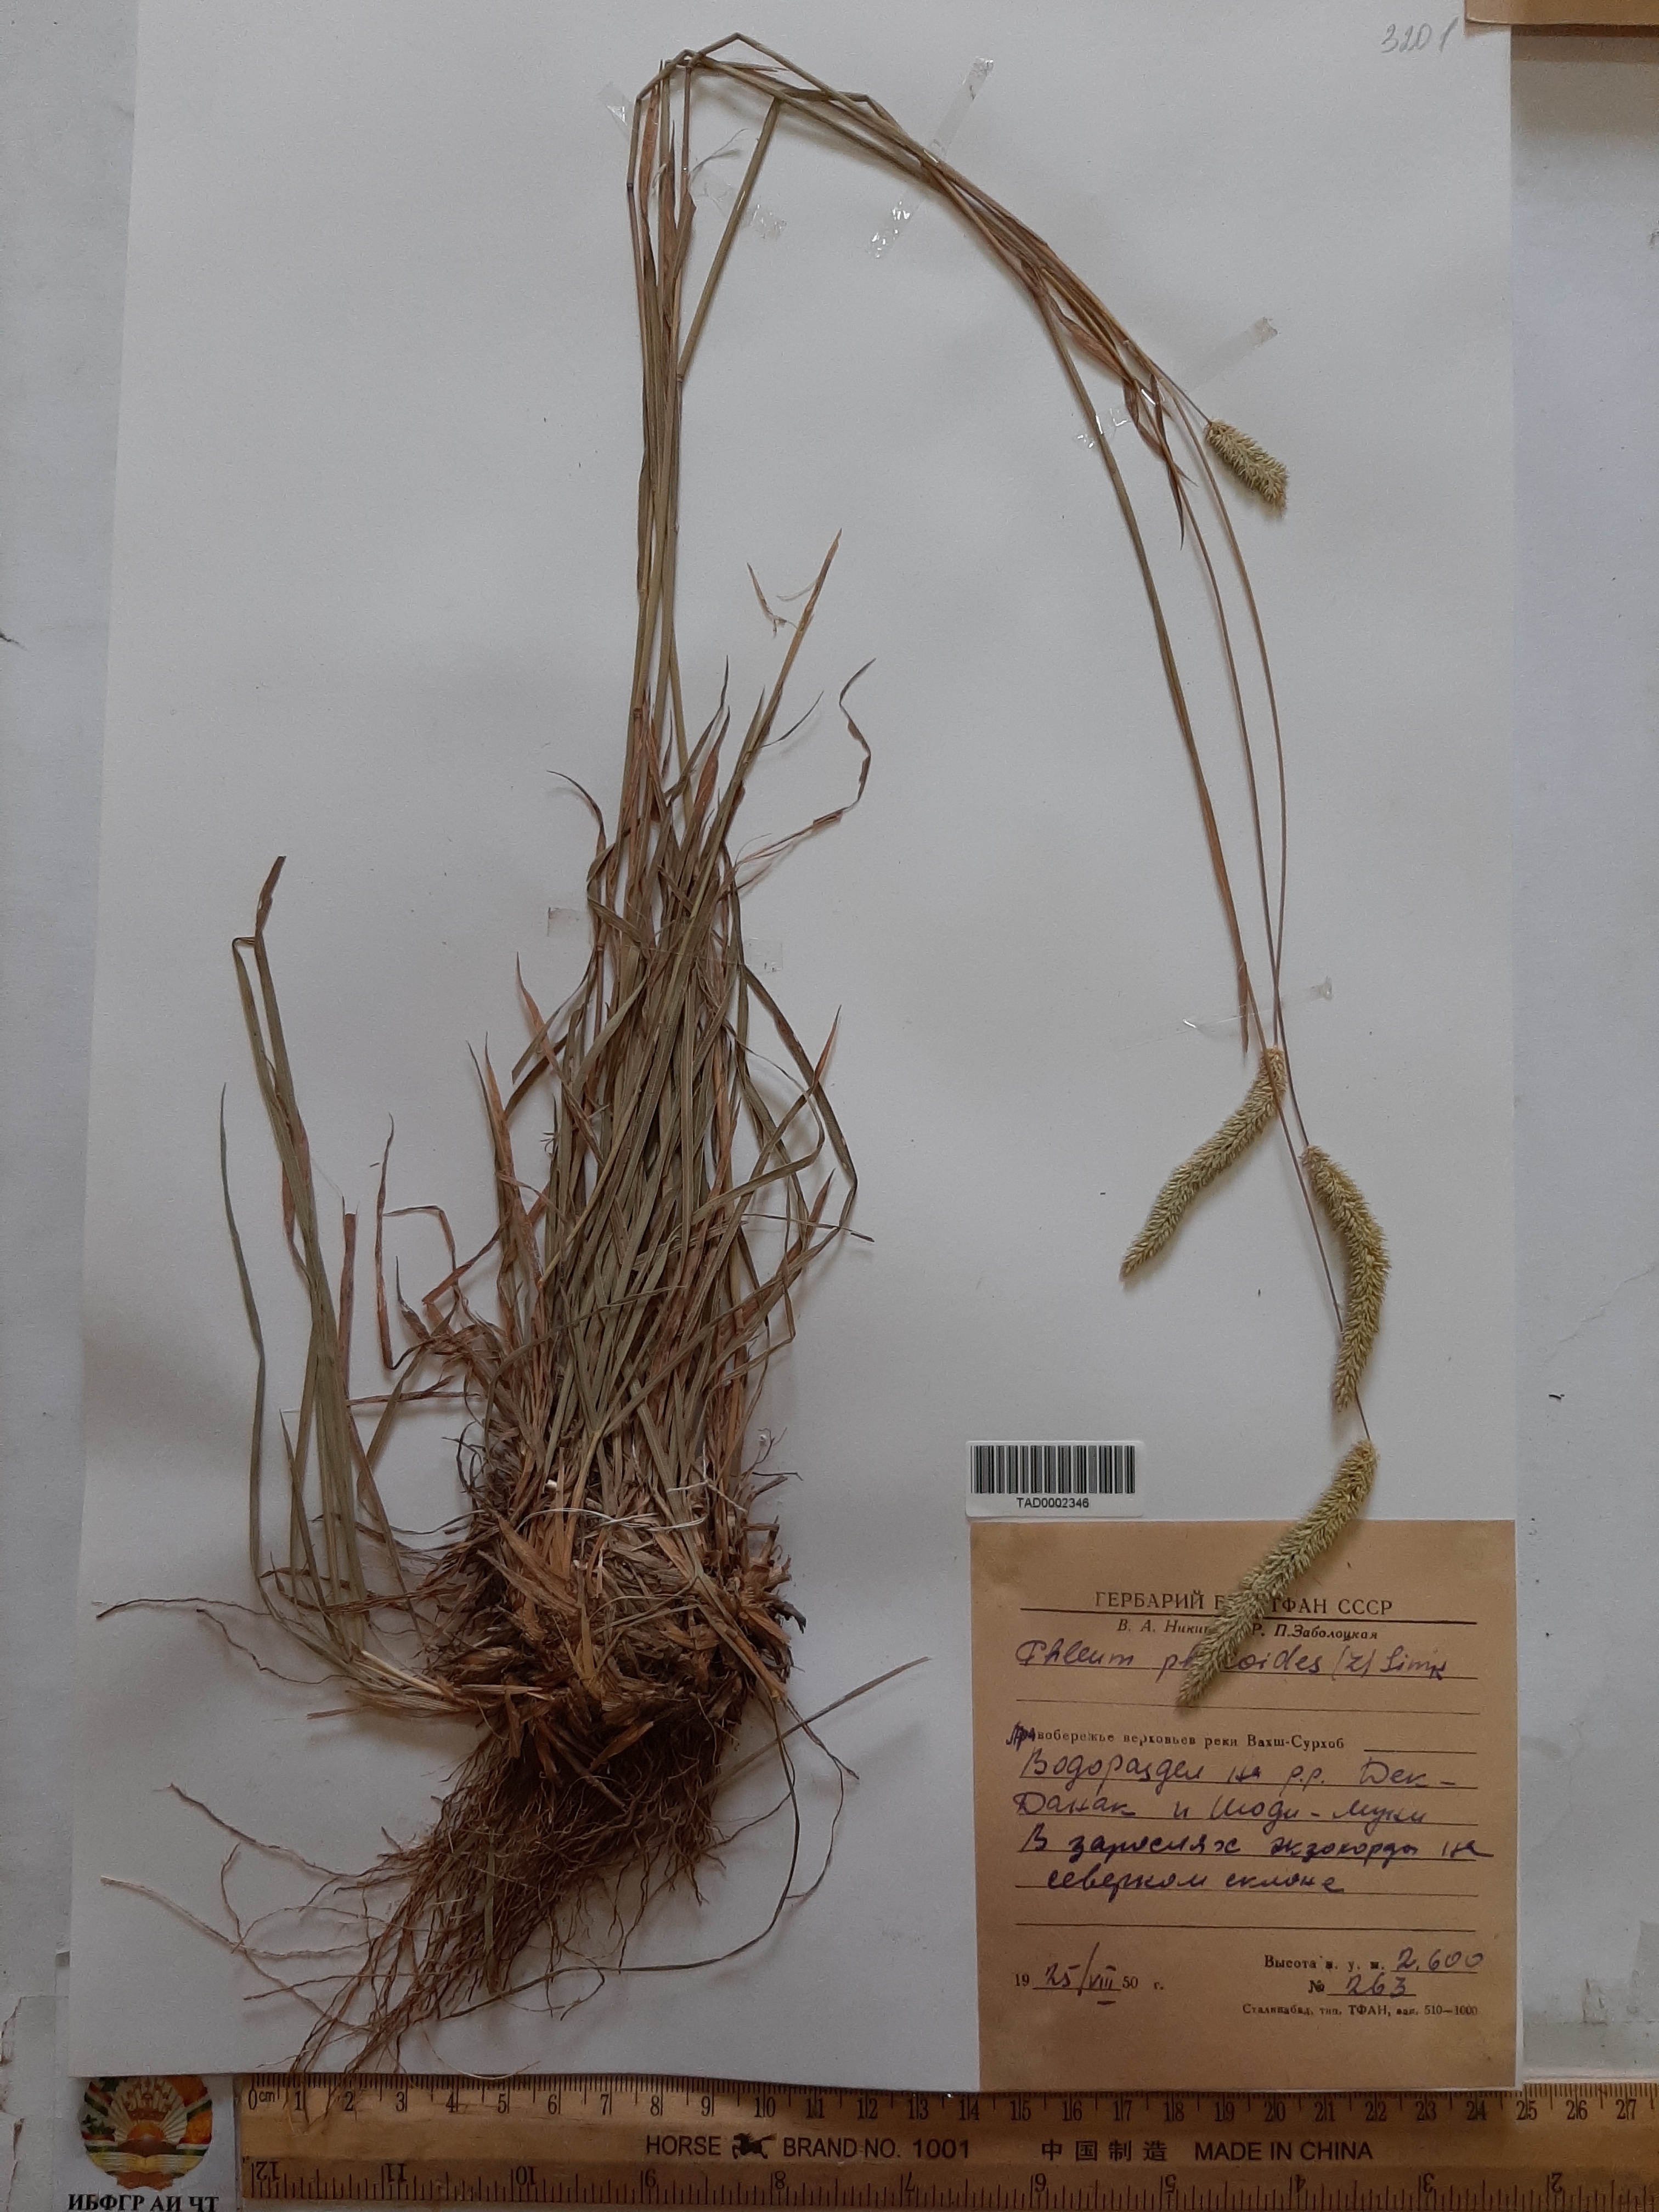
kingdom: Plantae
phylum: Tracheophyta
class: Liliopsida
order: Poales
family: Poaceae
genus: Phleum
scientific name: Phleum phleoides
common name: Purple-stem cat's-tail
